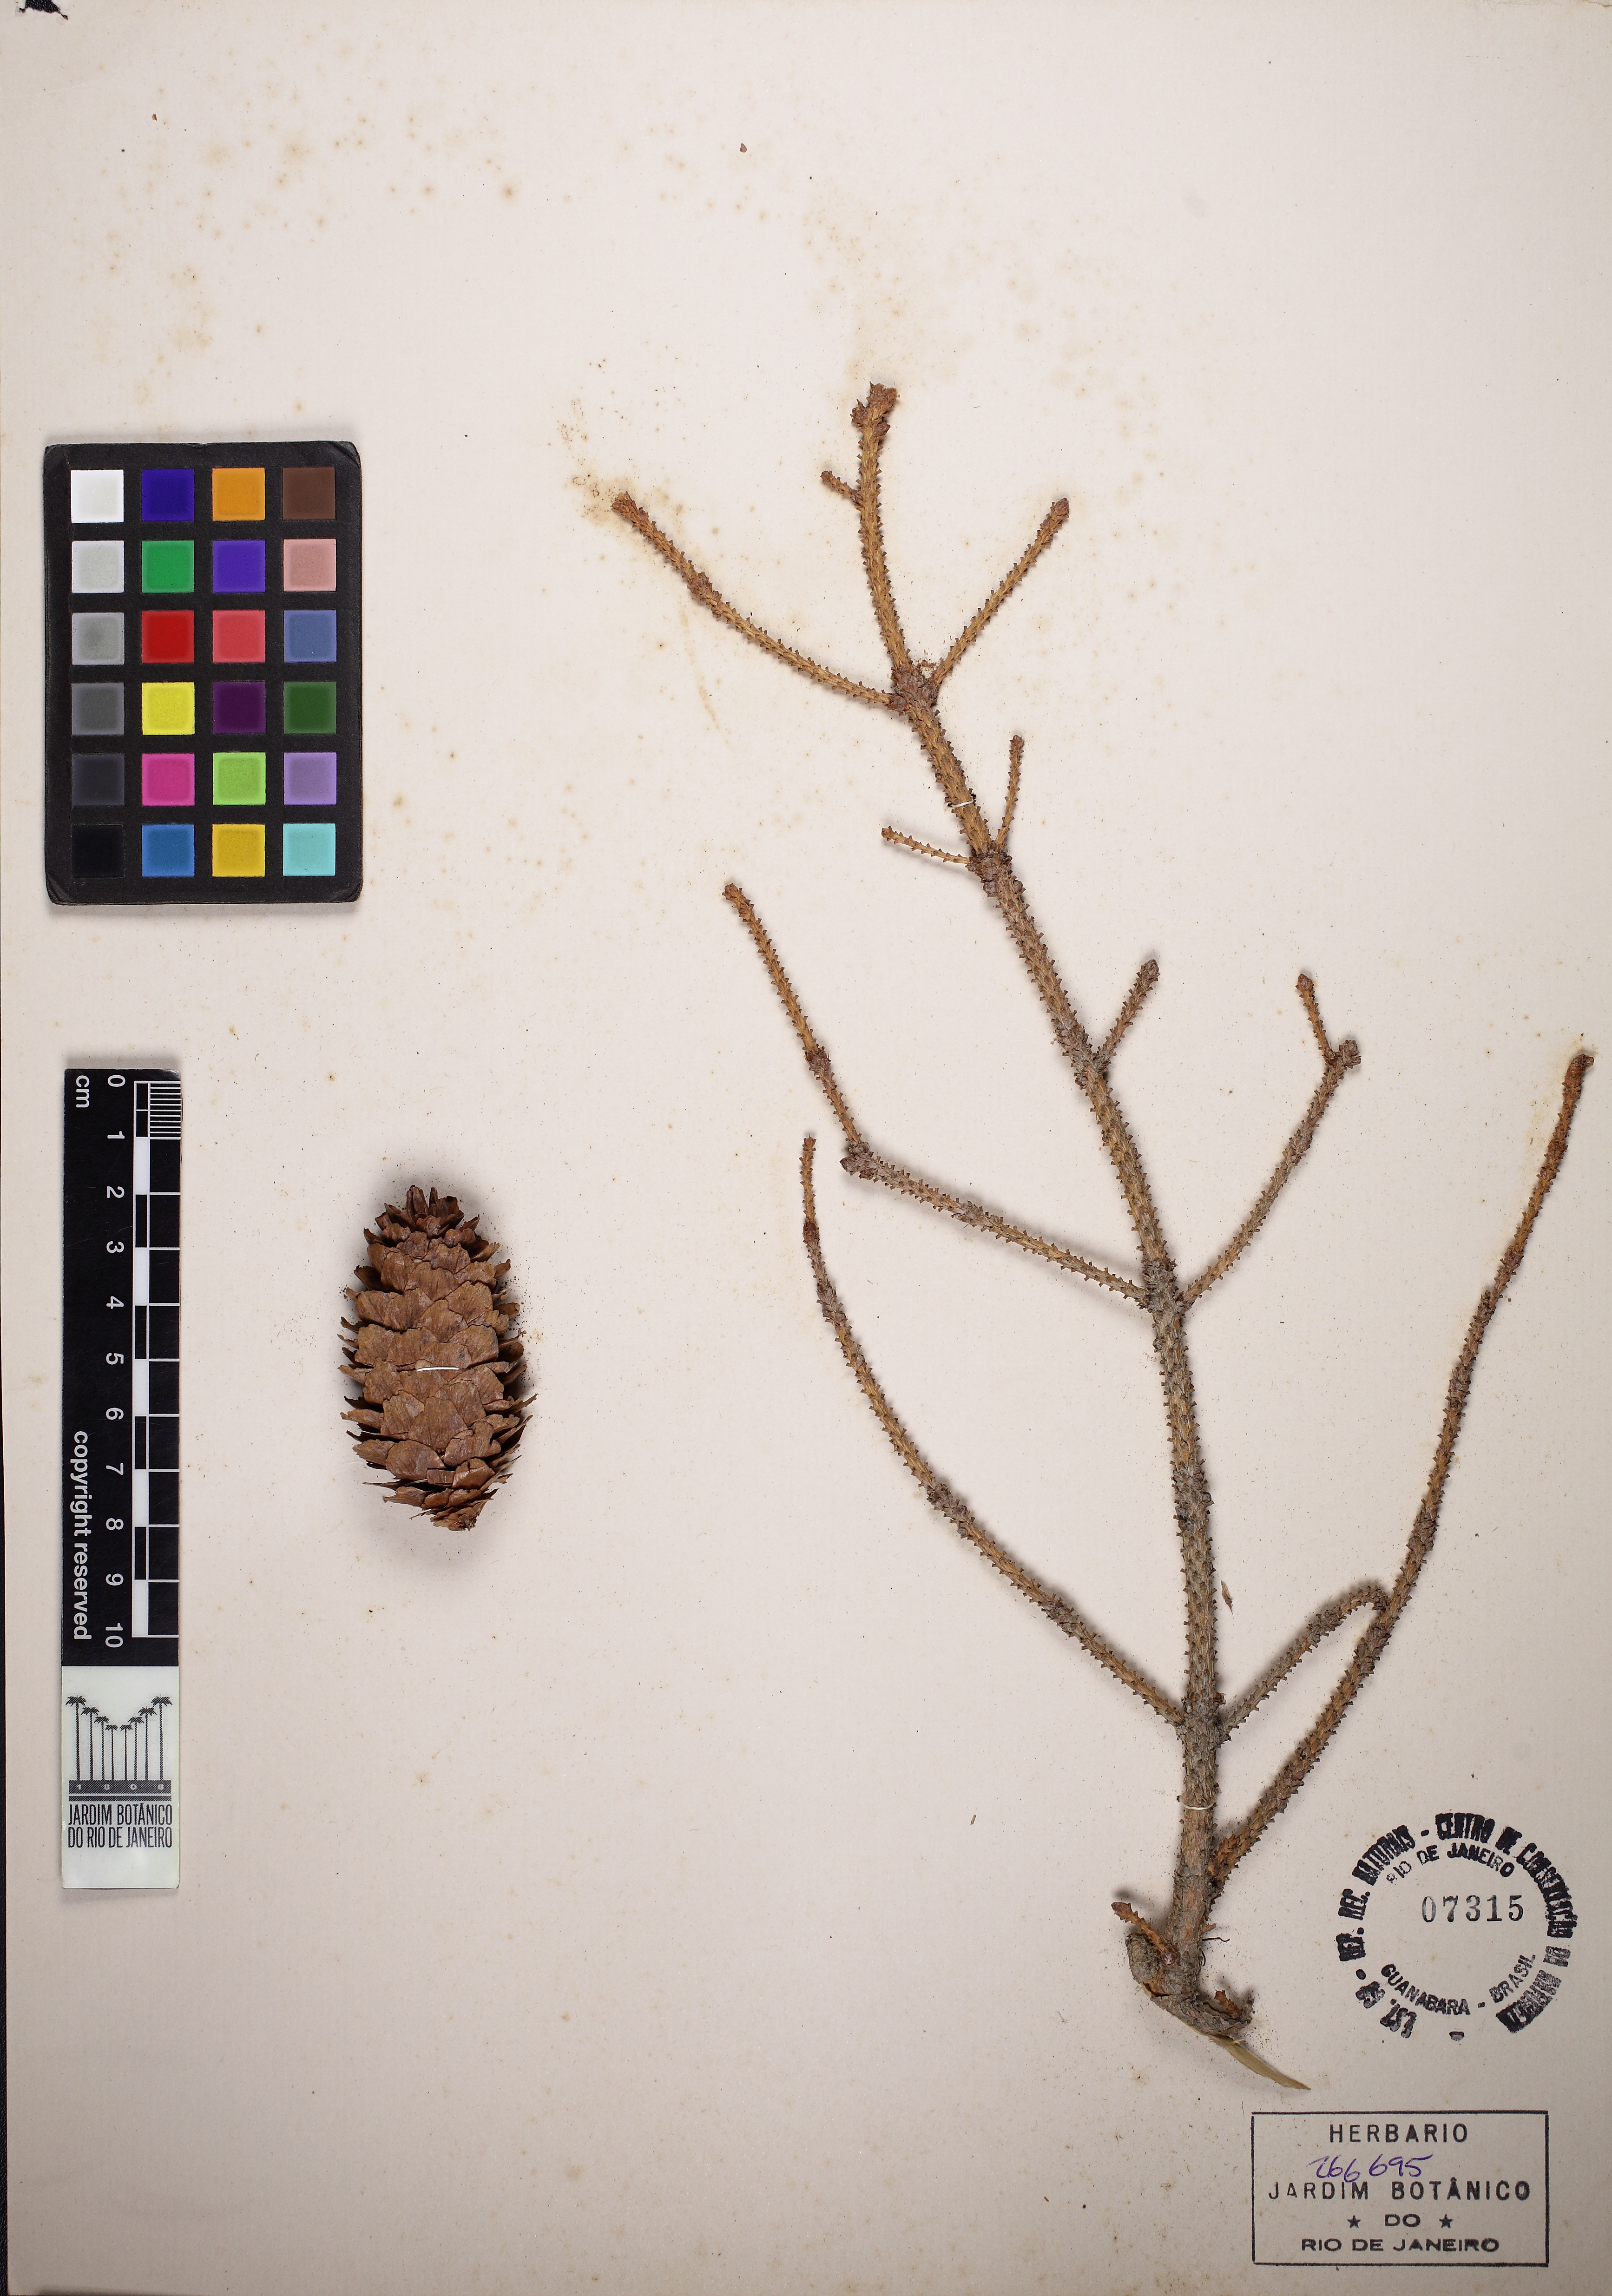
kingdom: Plantae
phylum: Tracheophyta
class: Pinopsida
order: Pinales
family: Pinaceae
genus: Picea
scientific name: Picea engelmannii
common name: Engelmann spruce
